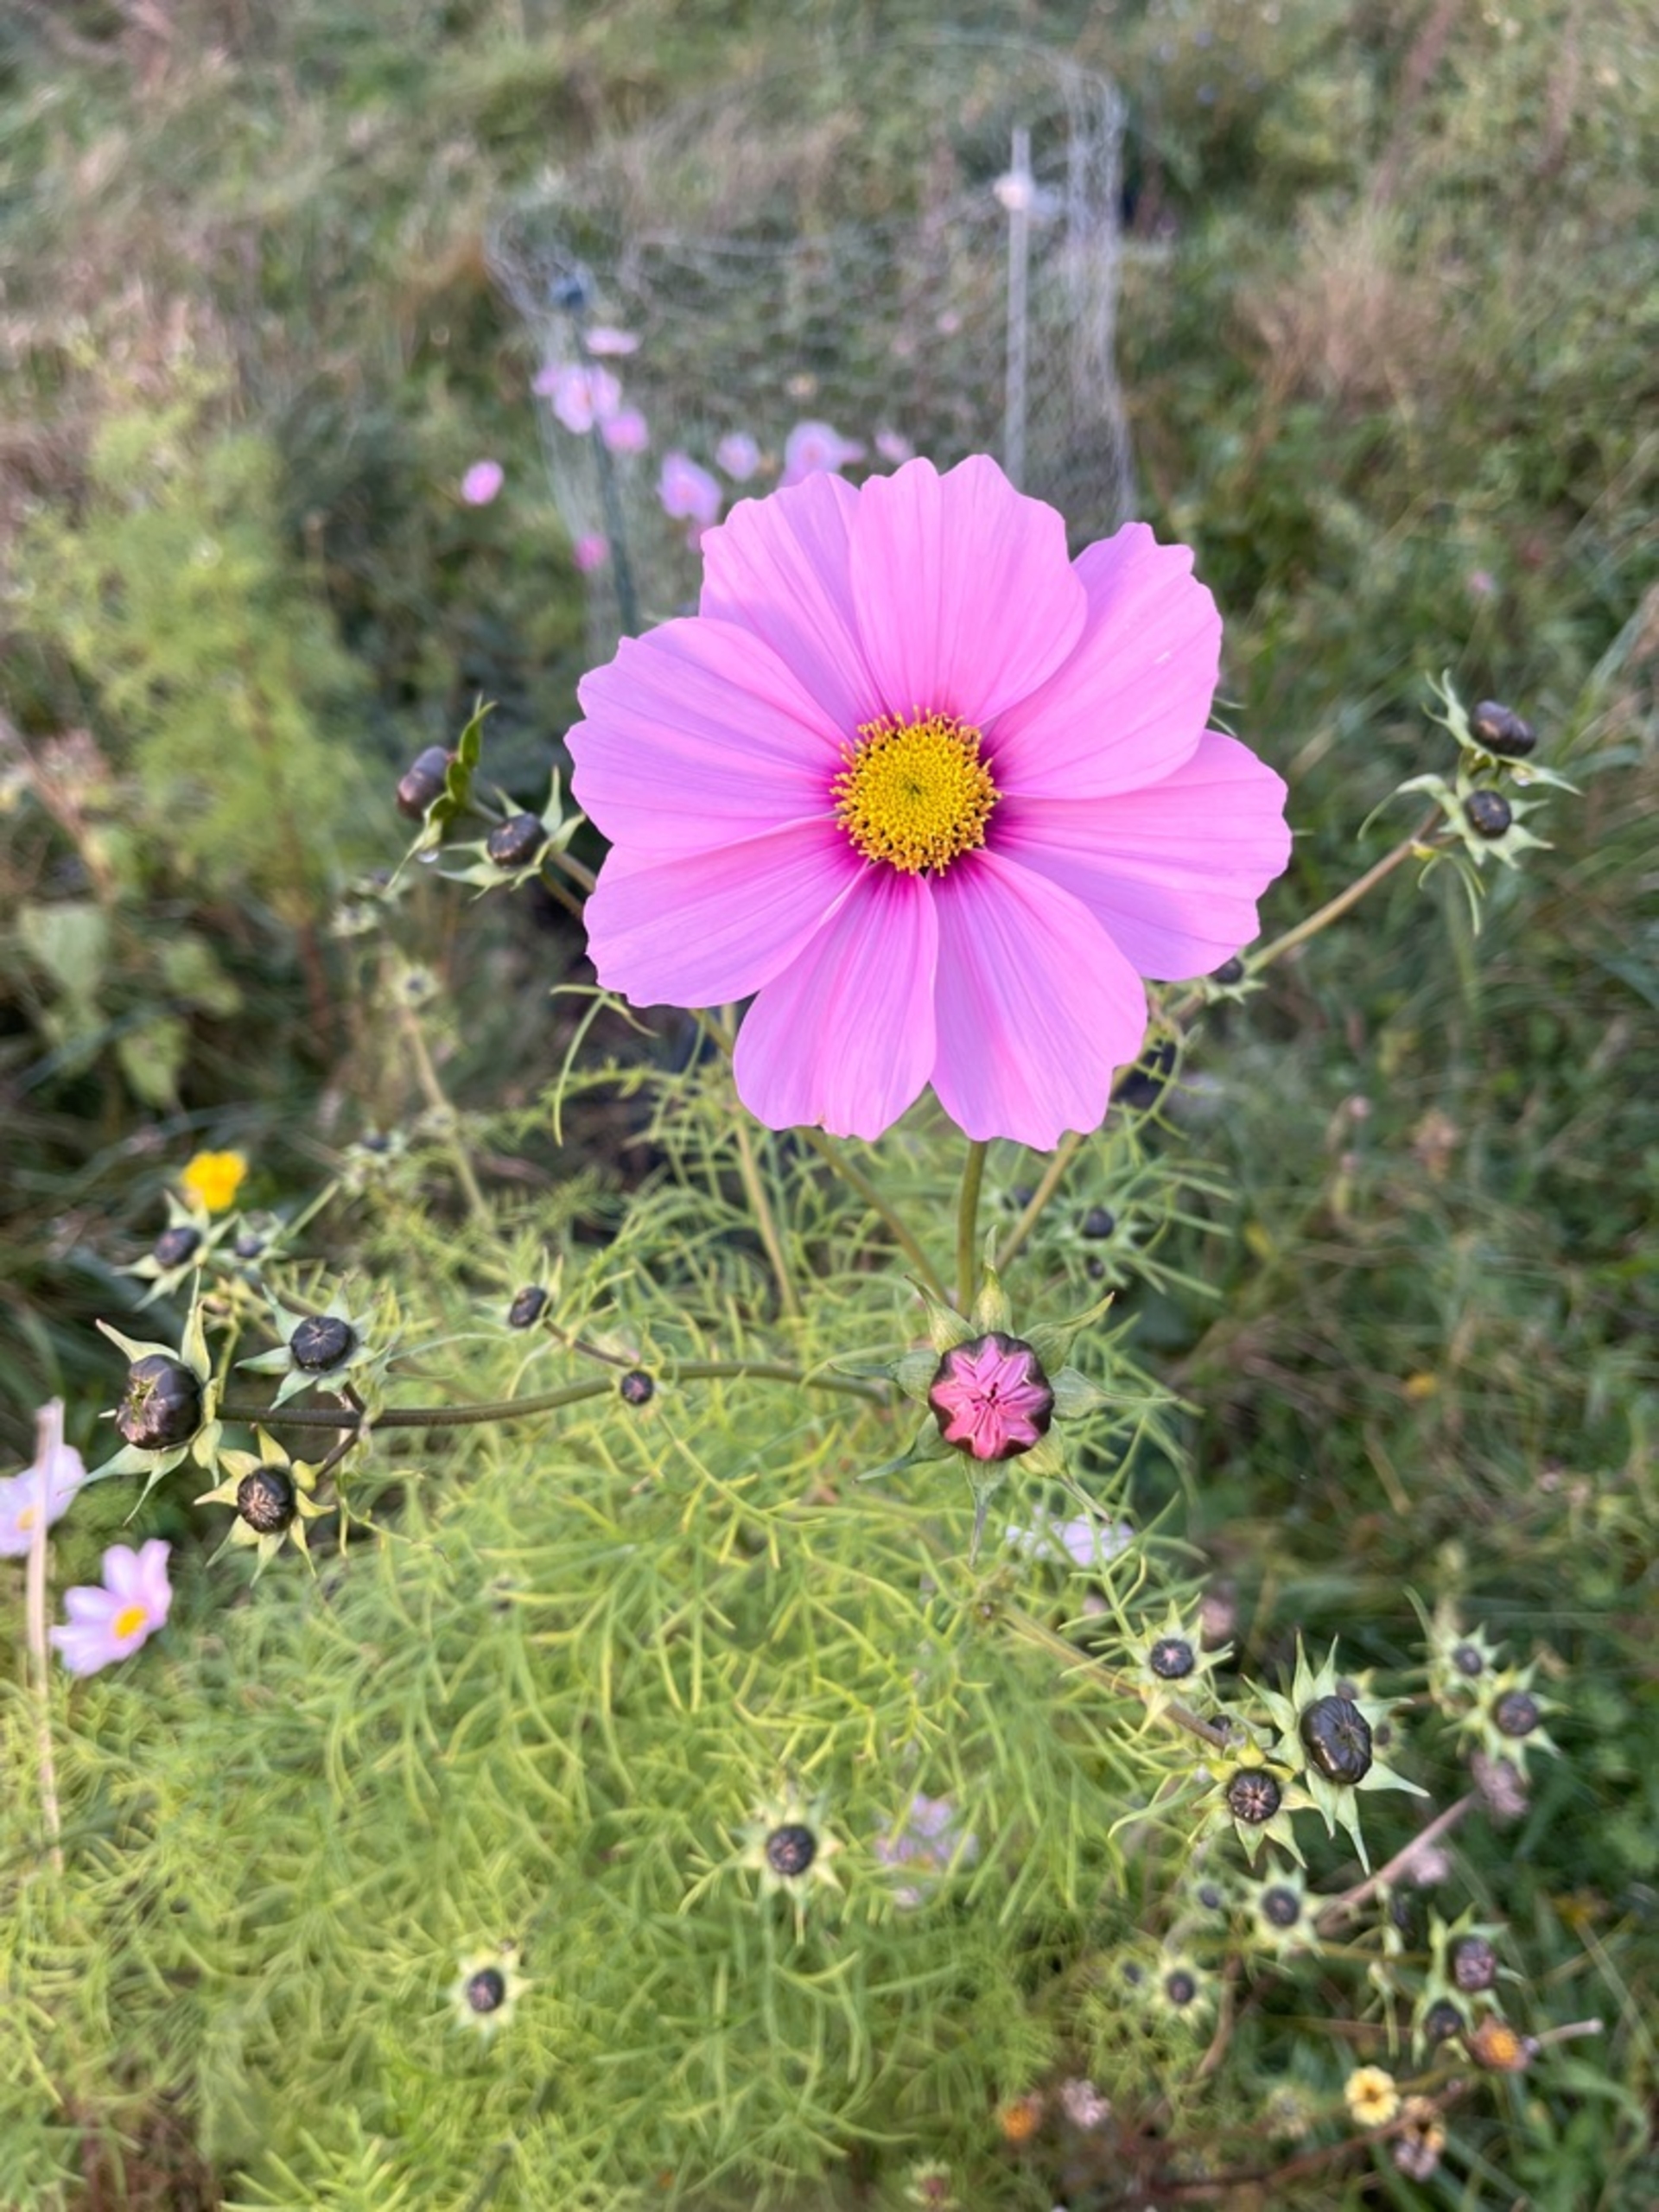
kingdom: Plantae
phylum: Tracheophyta
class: Magnoliopsida
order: Asterales
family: Asteraceae
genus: Cosmos
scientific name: Cosmos bipinnatus
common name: Stolt kavaler
